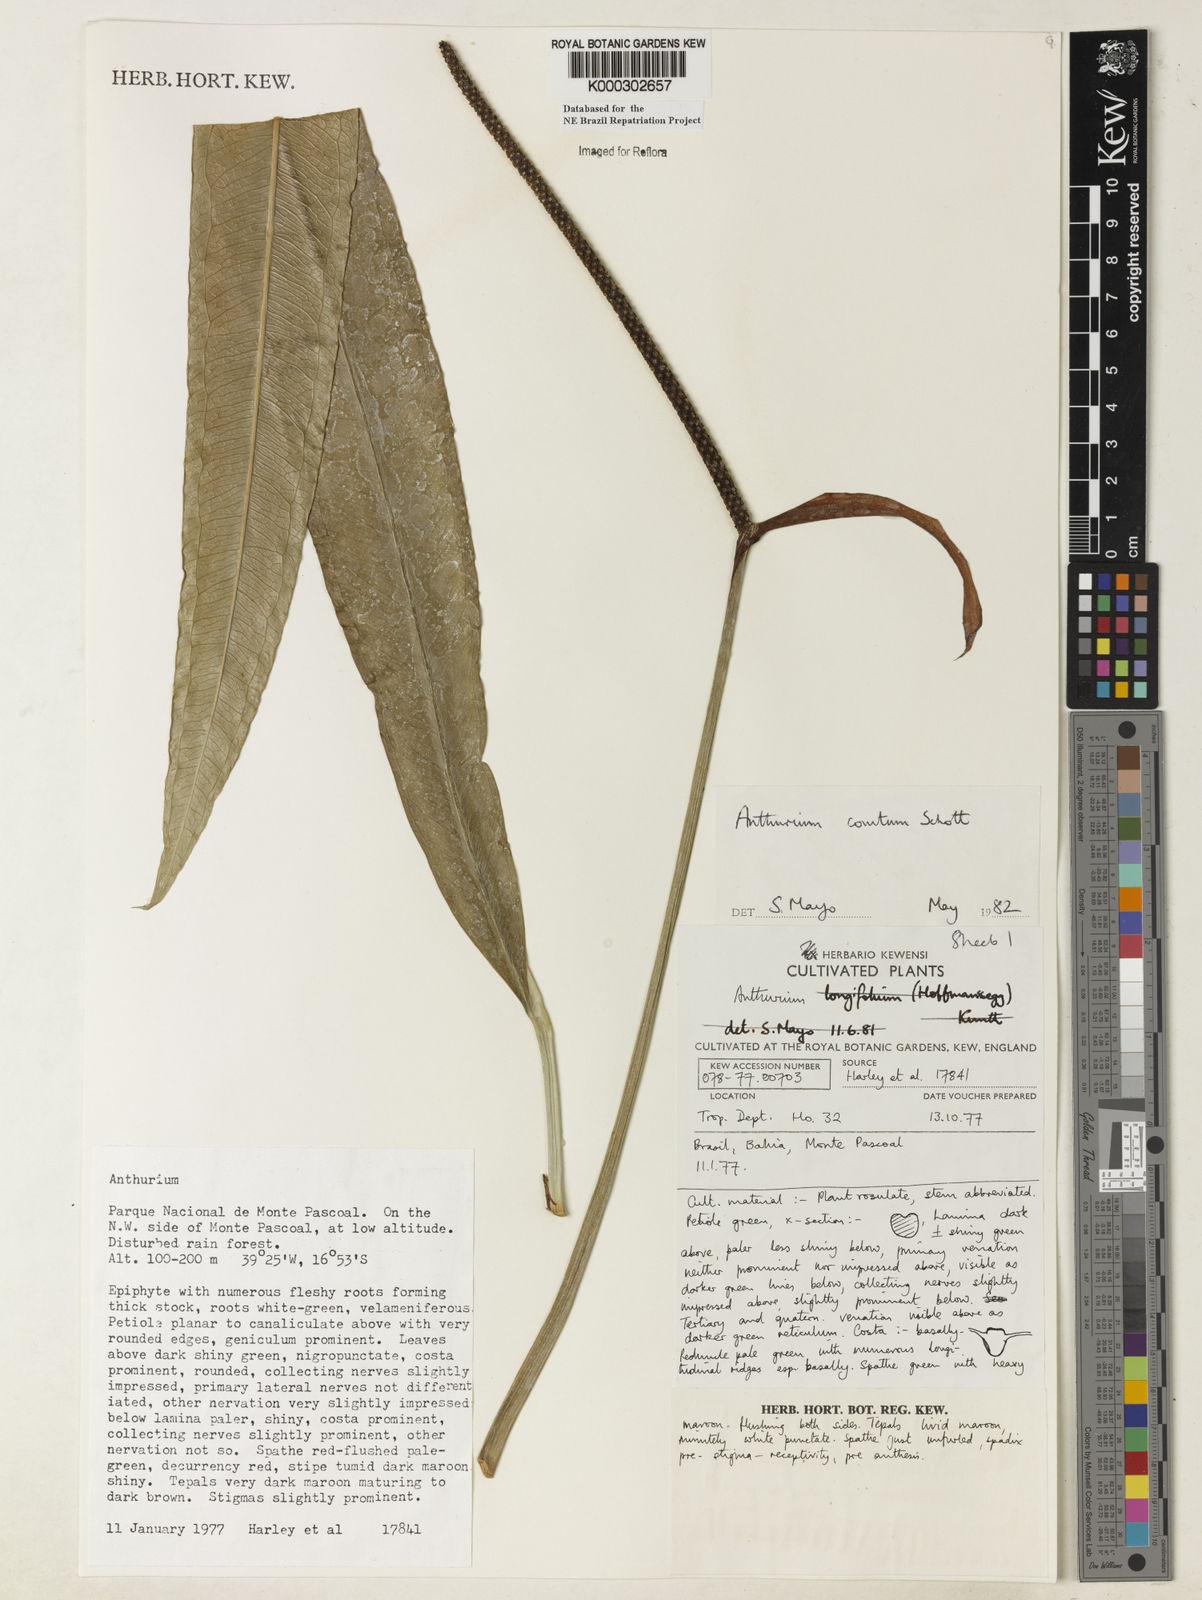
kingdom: Plantae
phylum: Tracheophyta
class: Liliopsida
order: Alismatales
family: Araceae
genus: Anthurium
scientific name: Anthurium comtum
